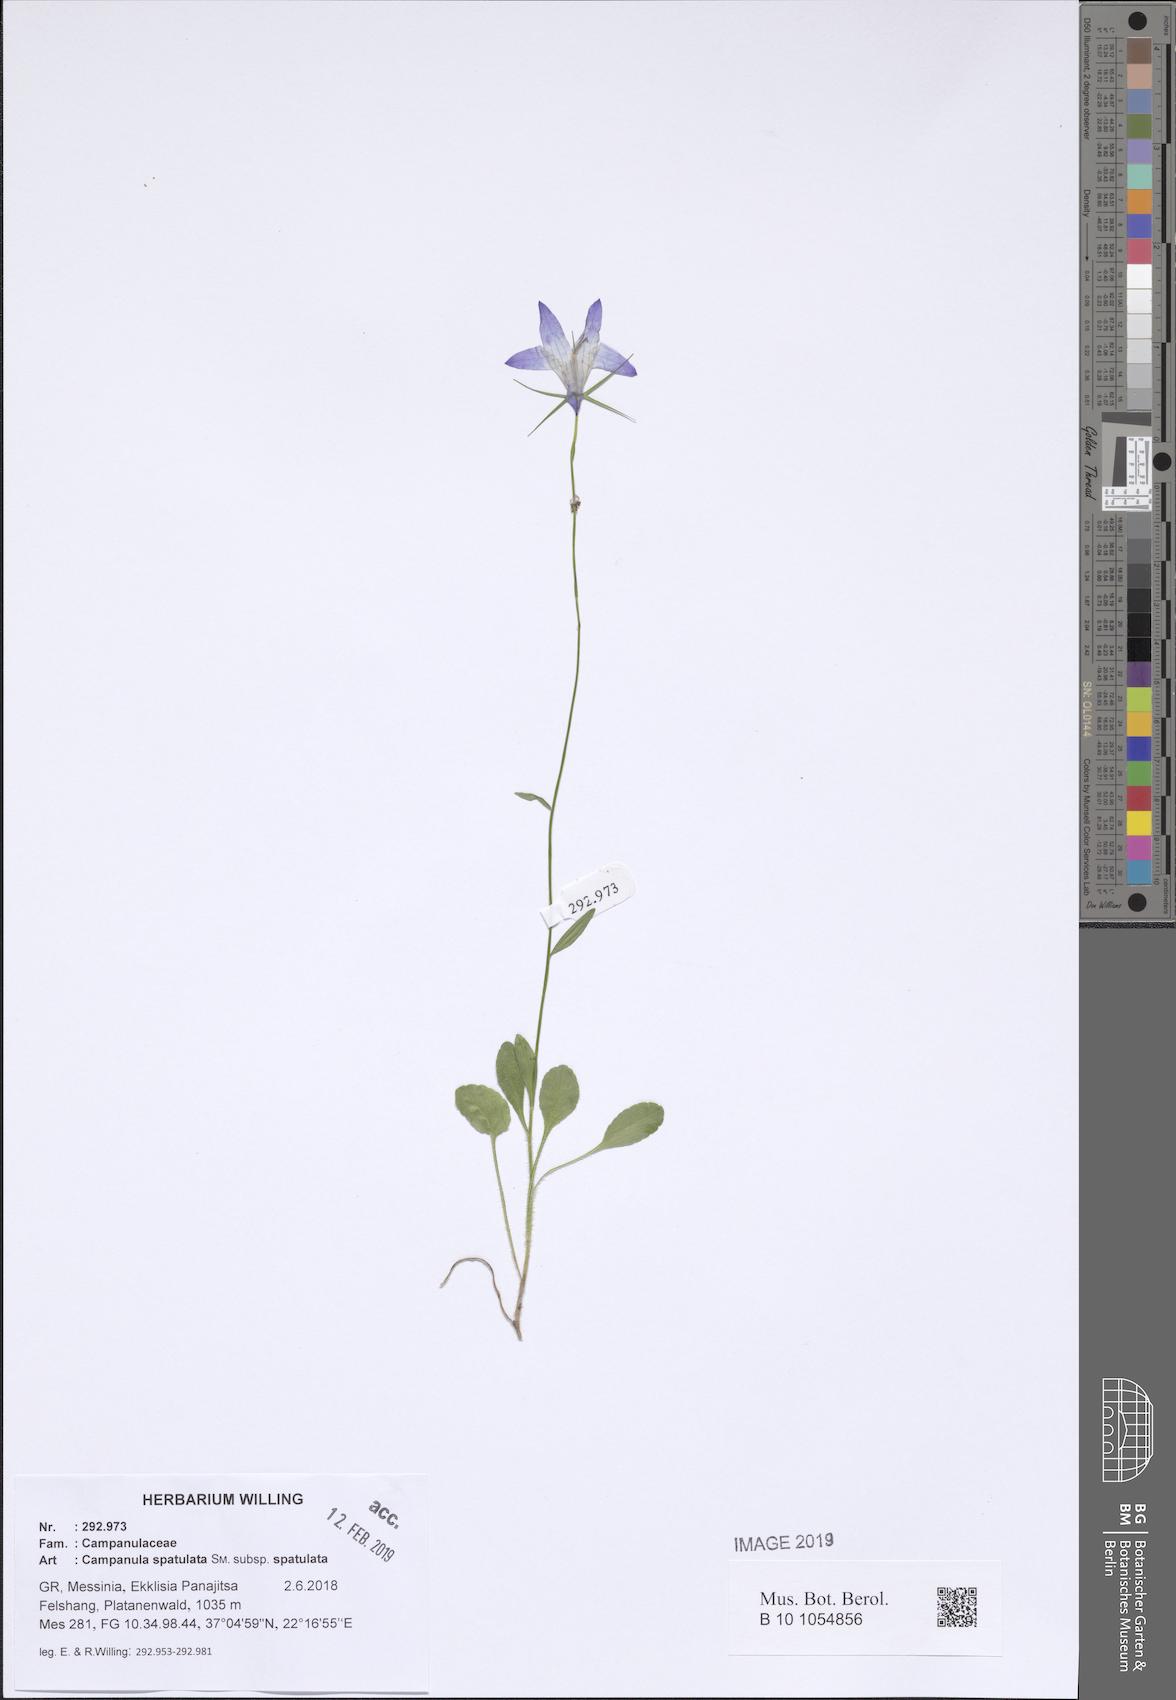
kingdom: Plantae
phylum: Tracheophyta
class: Magnoliopsida
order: Asterales
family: Campanulaceae
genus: Campanula
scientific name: Campanula spatulata
